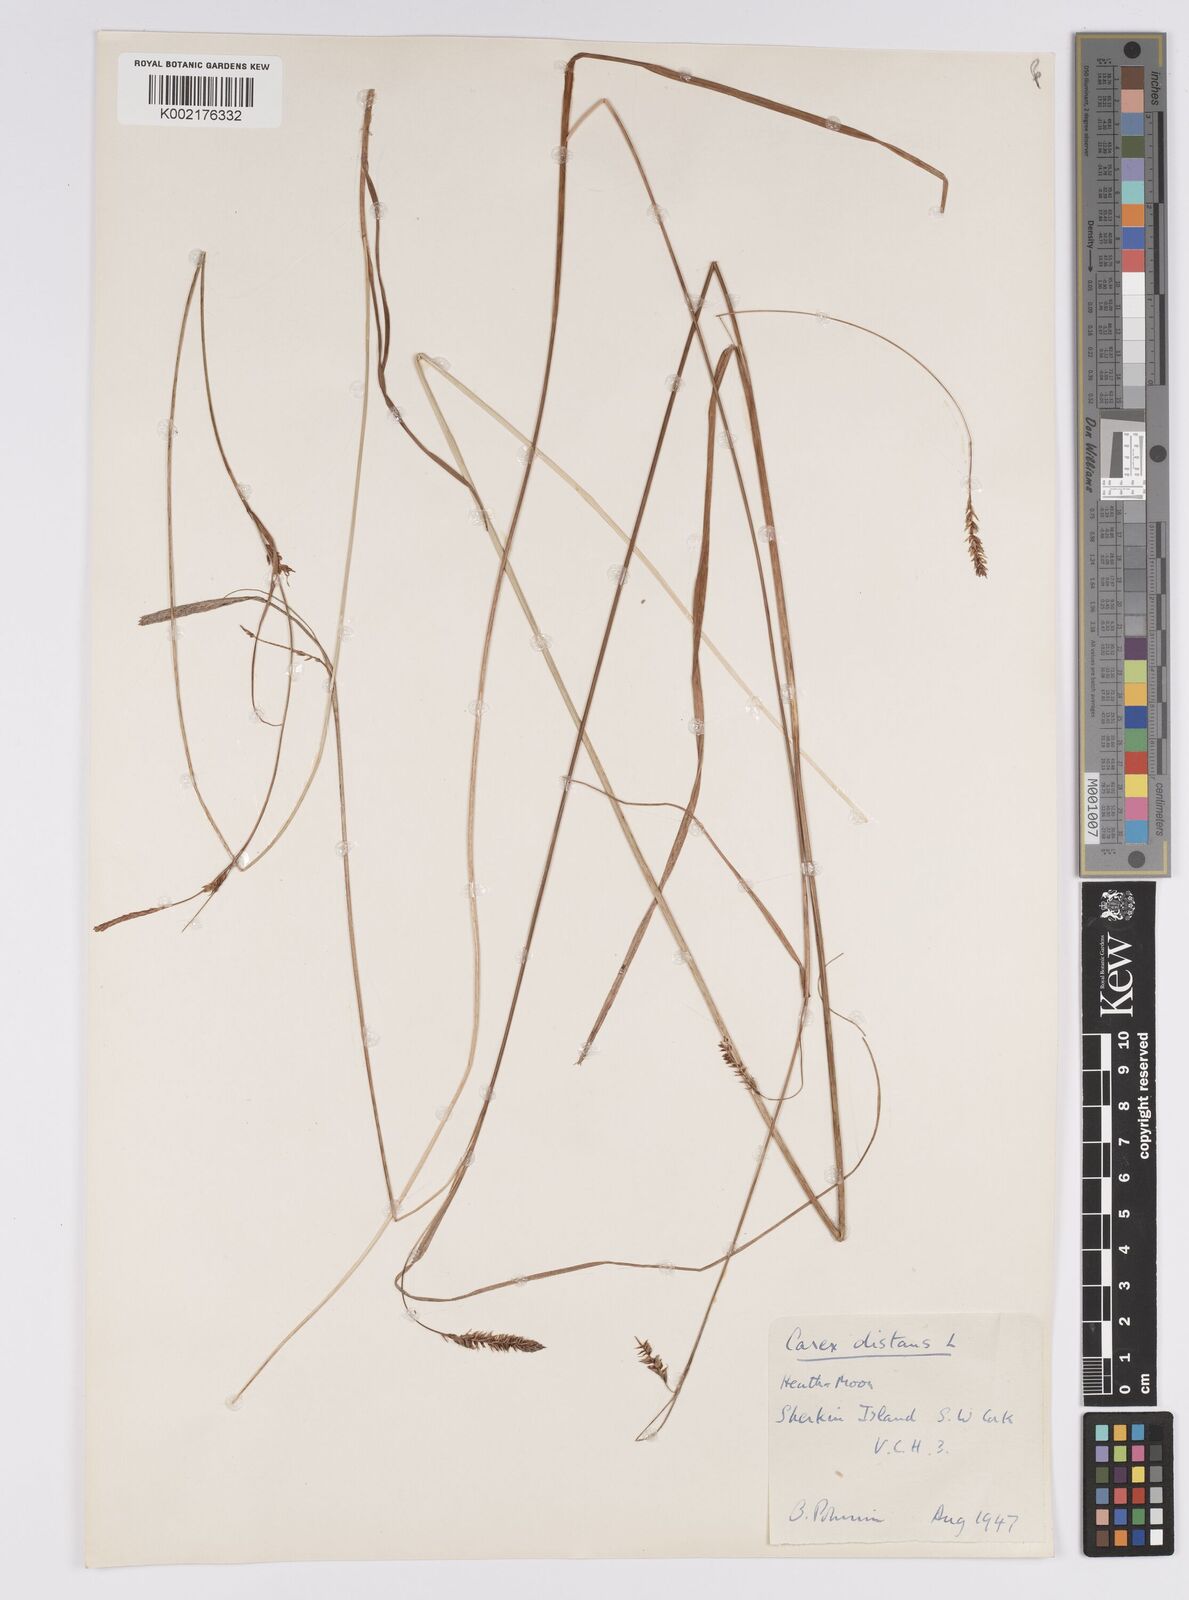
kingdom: Plantae
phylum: Tracheophyta
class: Liliopsida
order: Poales
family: Cyperaceae
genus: Carex
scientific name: Carex distans
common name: Distant sedge
